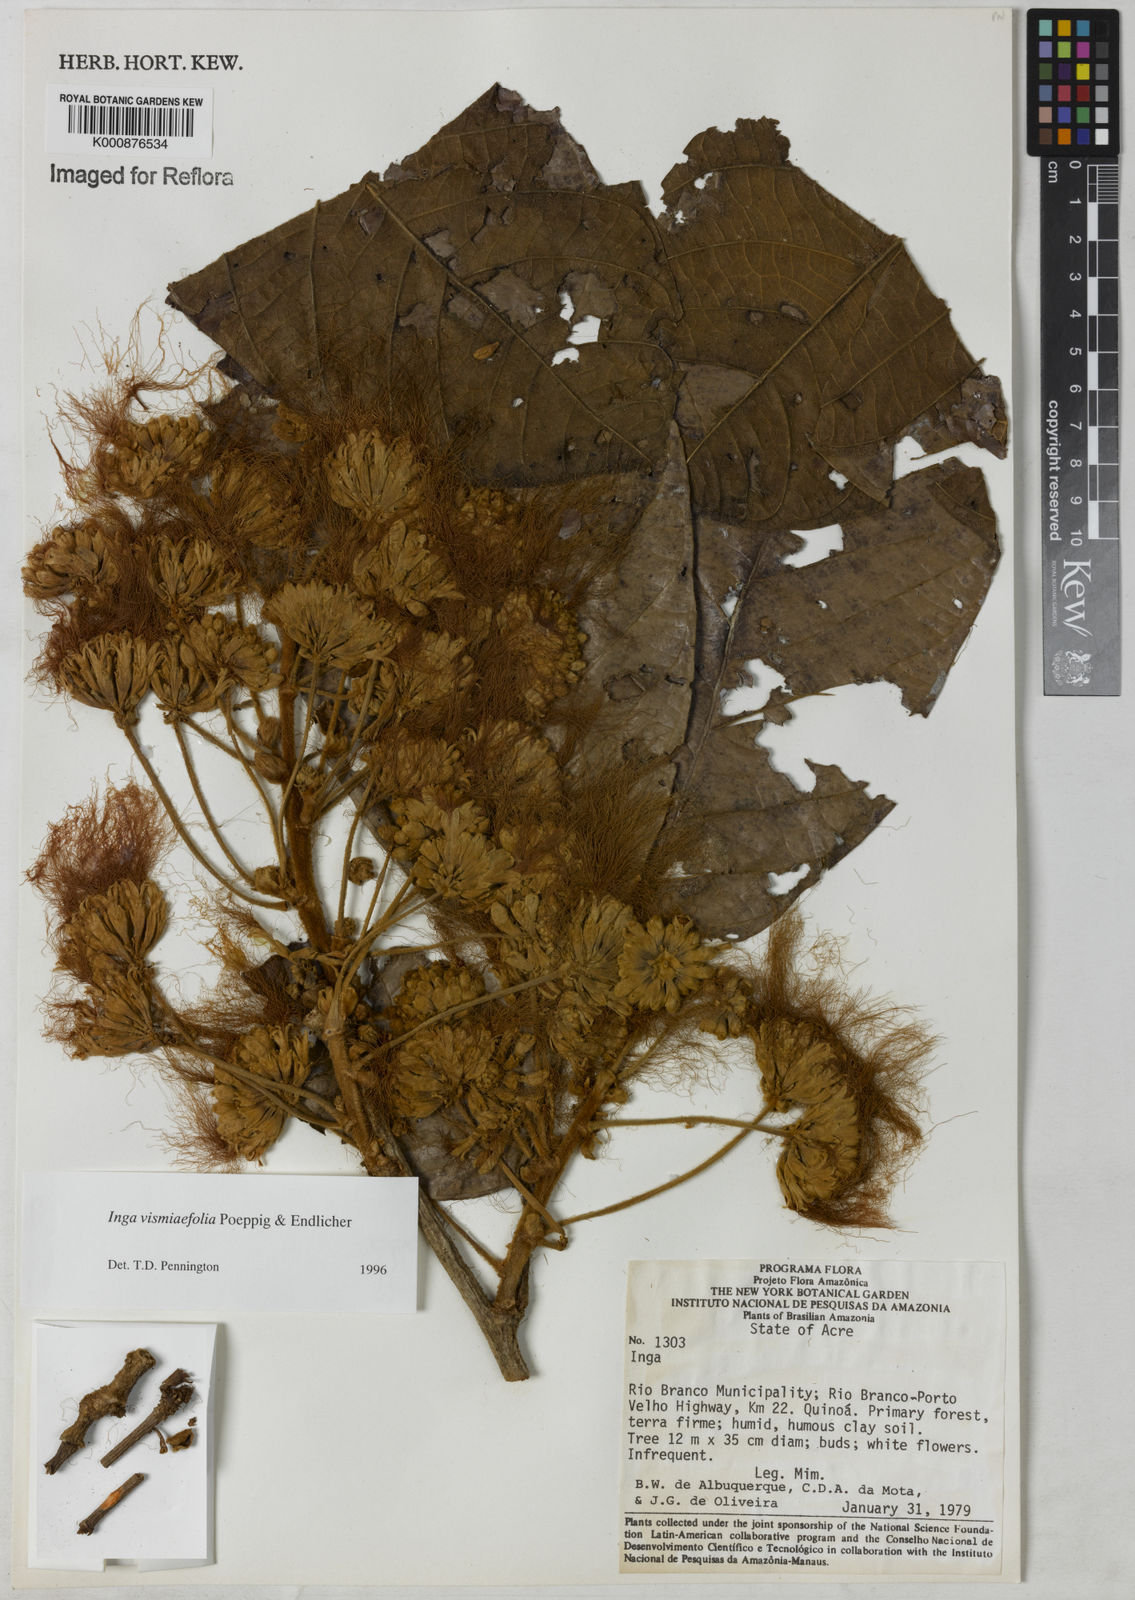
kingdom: Plantae
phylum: Tracheophyta
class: Magnoliopsida
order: Fabales
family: Fabaceae
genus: Inga
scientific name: Inga vismiifolia
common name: Howler monkey inga
